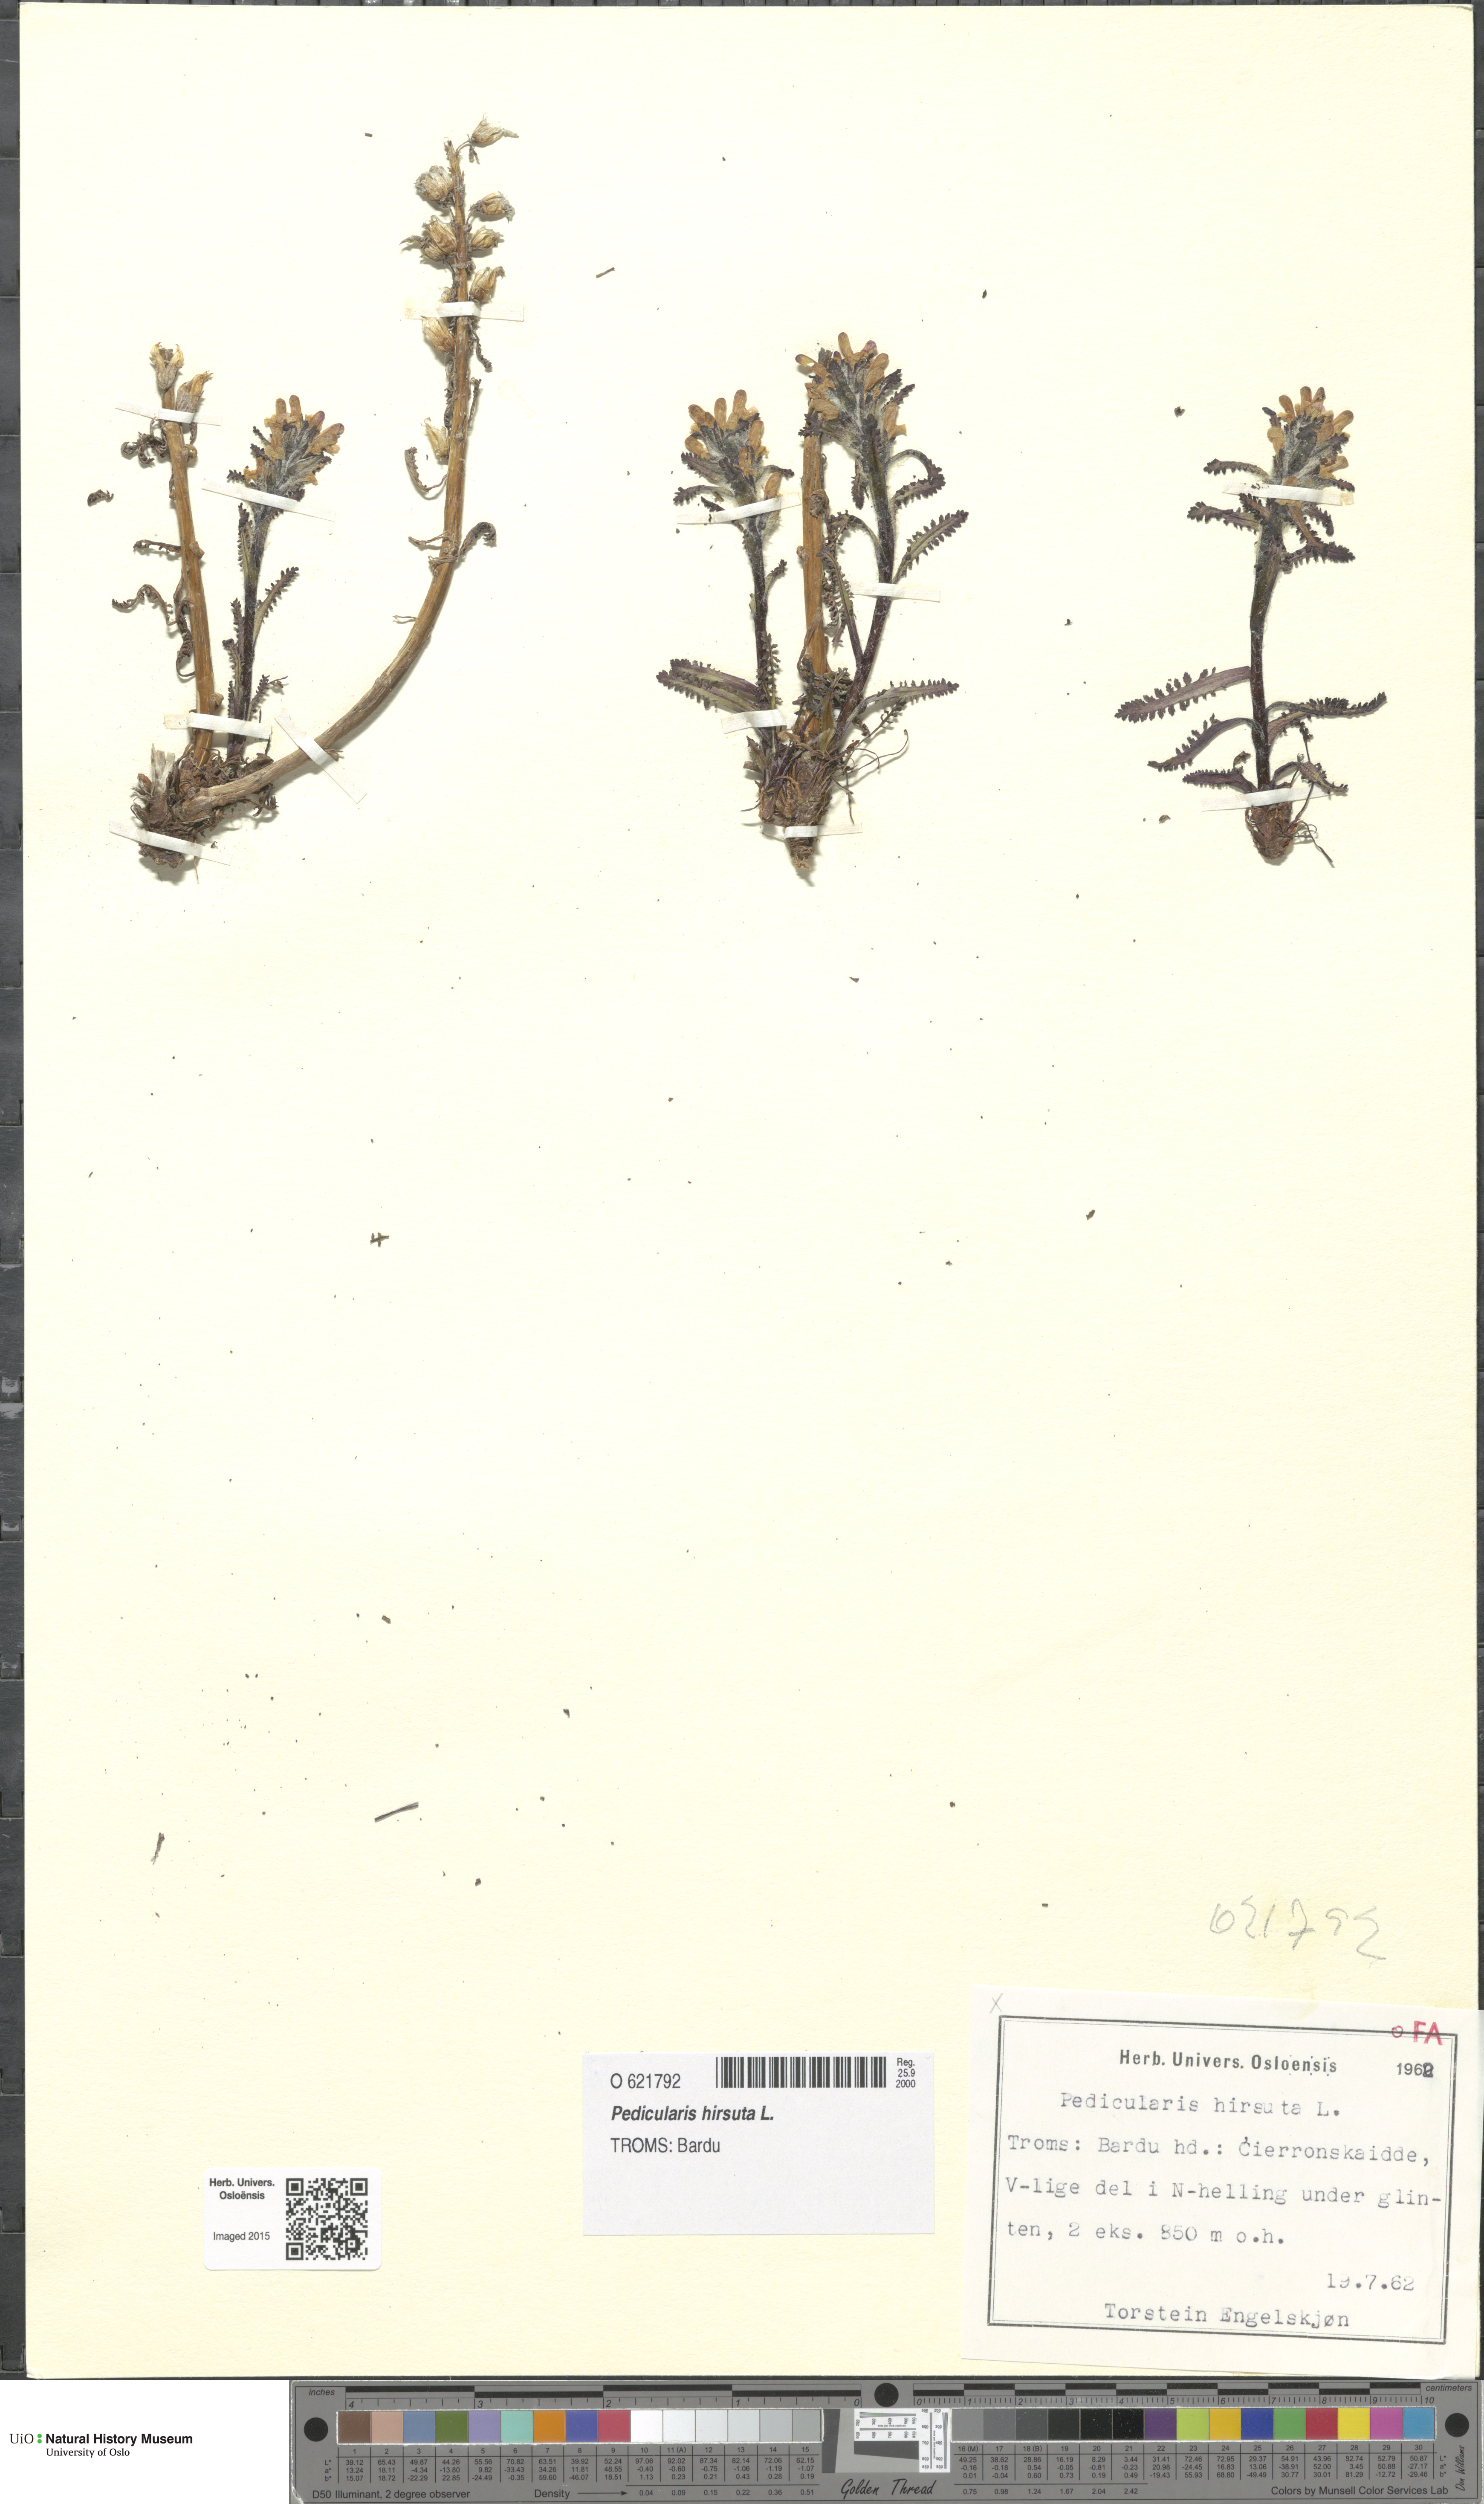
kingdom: Plantae
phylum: Tracheophyta
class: Magnoliopsida
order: Lamiales
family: Orobanchaceae
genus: Pedicularis
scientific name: Pedicularis hirsuta
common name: Hairy lousewort
